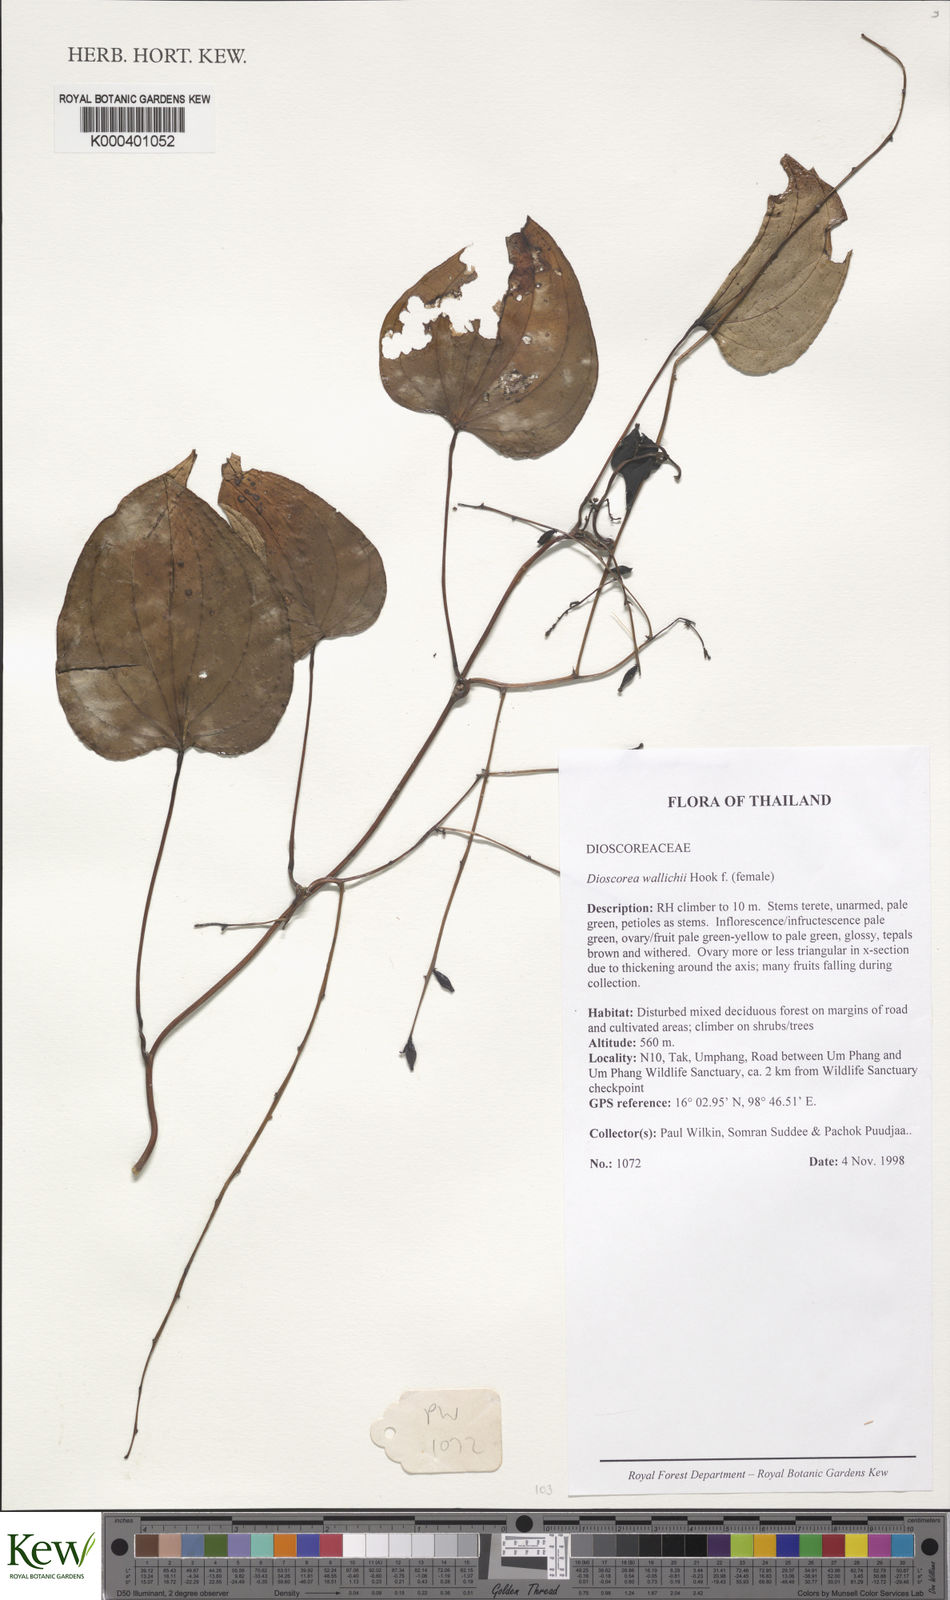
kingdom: Plantae
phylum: Tracheophyta
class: Liliopsida
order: Dioscoreales
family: Dioscoreaceae
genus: Dioscorea
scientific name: Dioscorea wallichii
